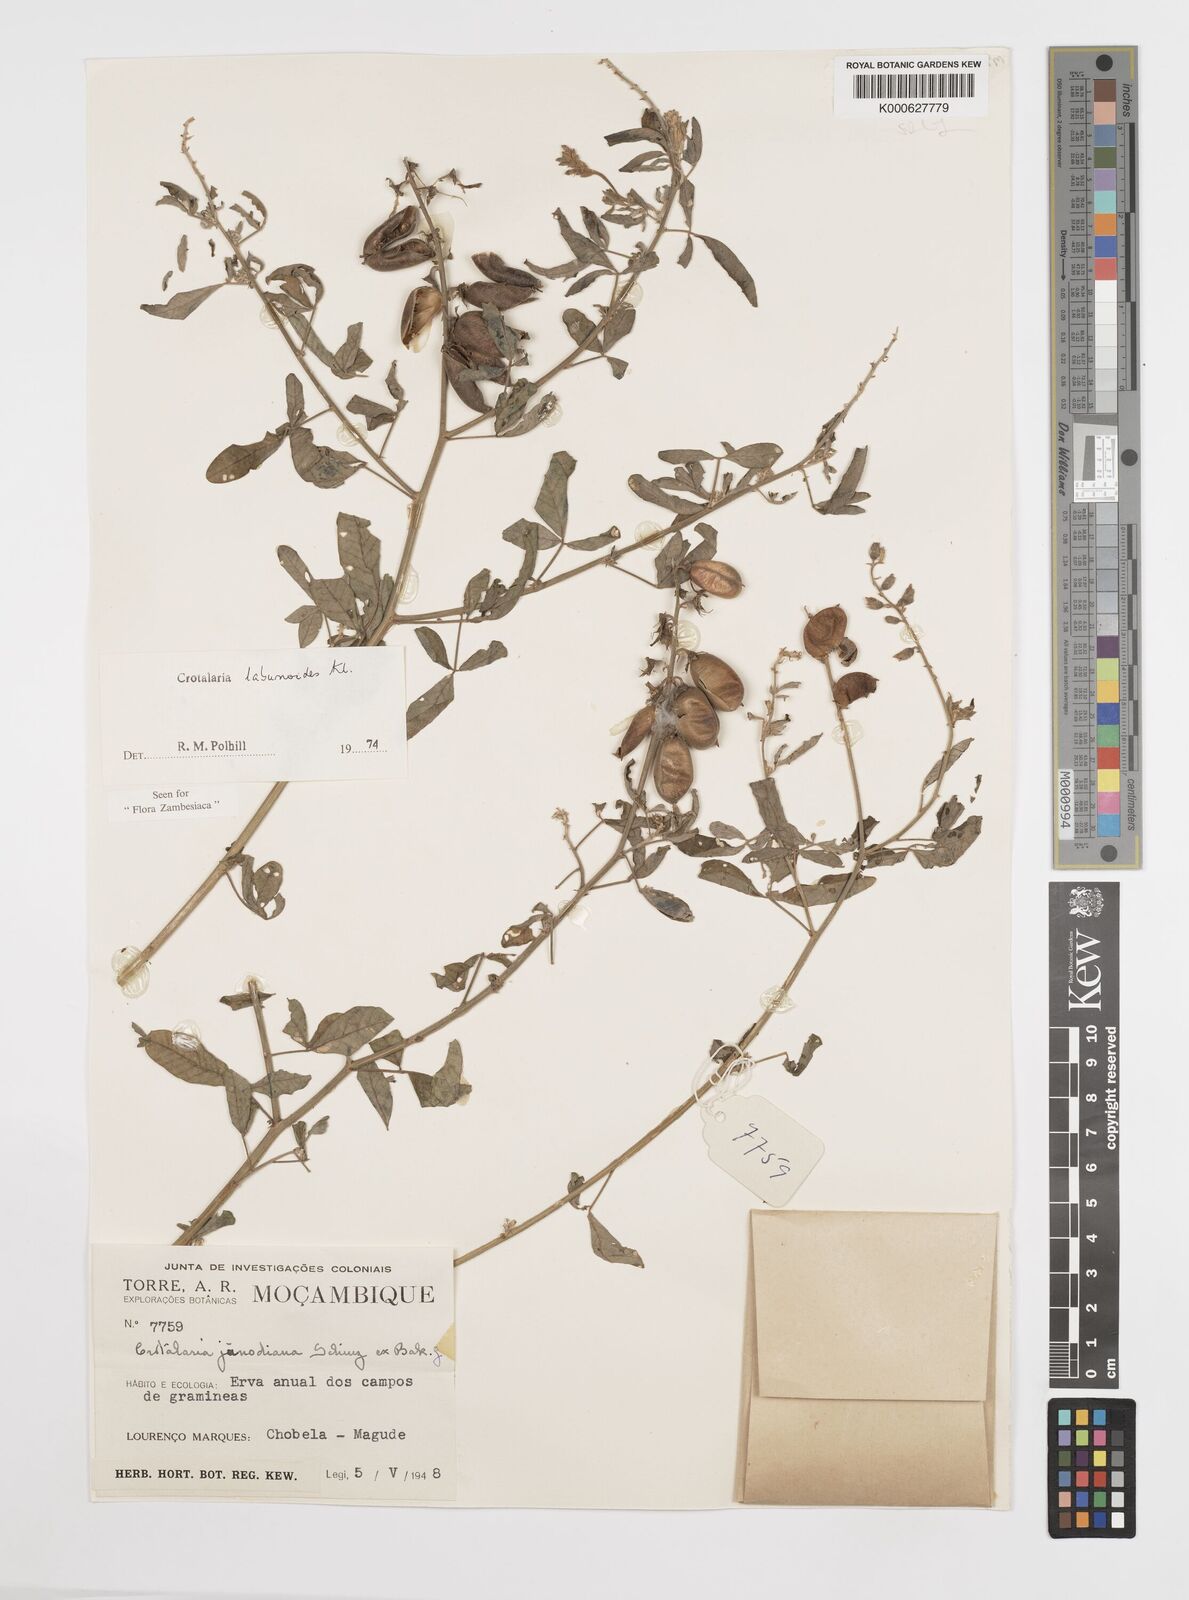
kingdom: Plantae
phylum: Tracheophyta
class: Magnoliopsida
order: Fabales
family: Fabaceae
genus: Crotalaria
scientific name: Crotalaria laburnoides
